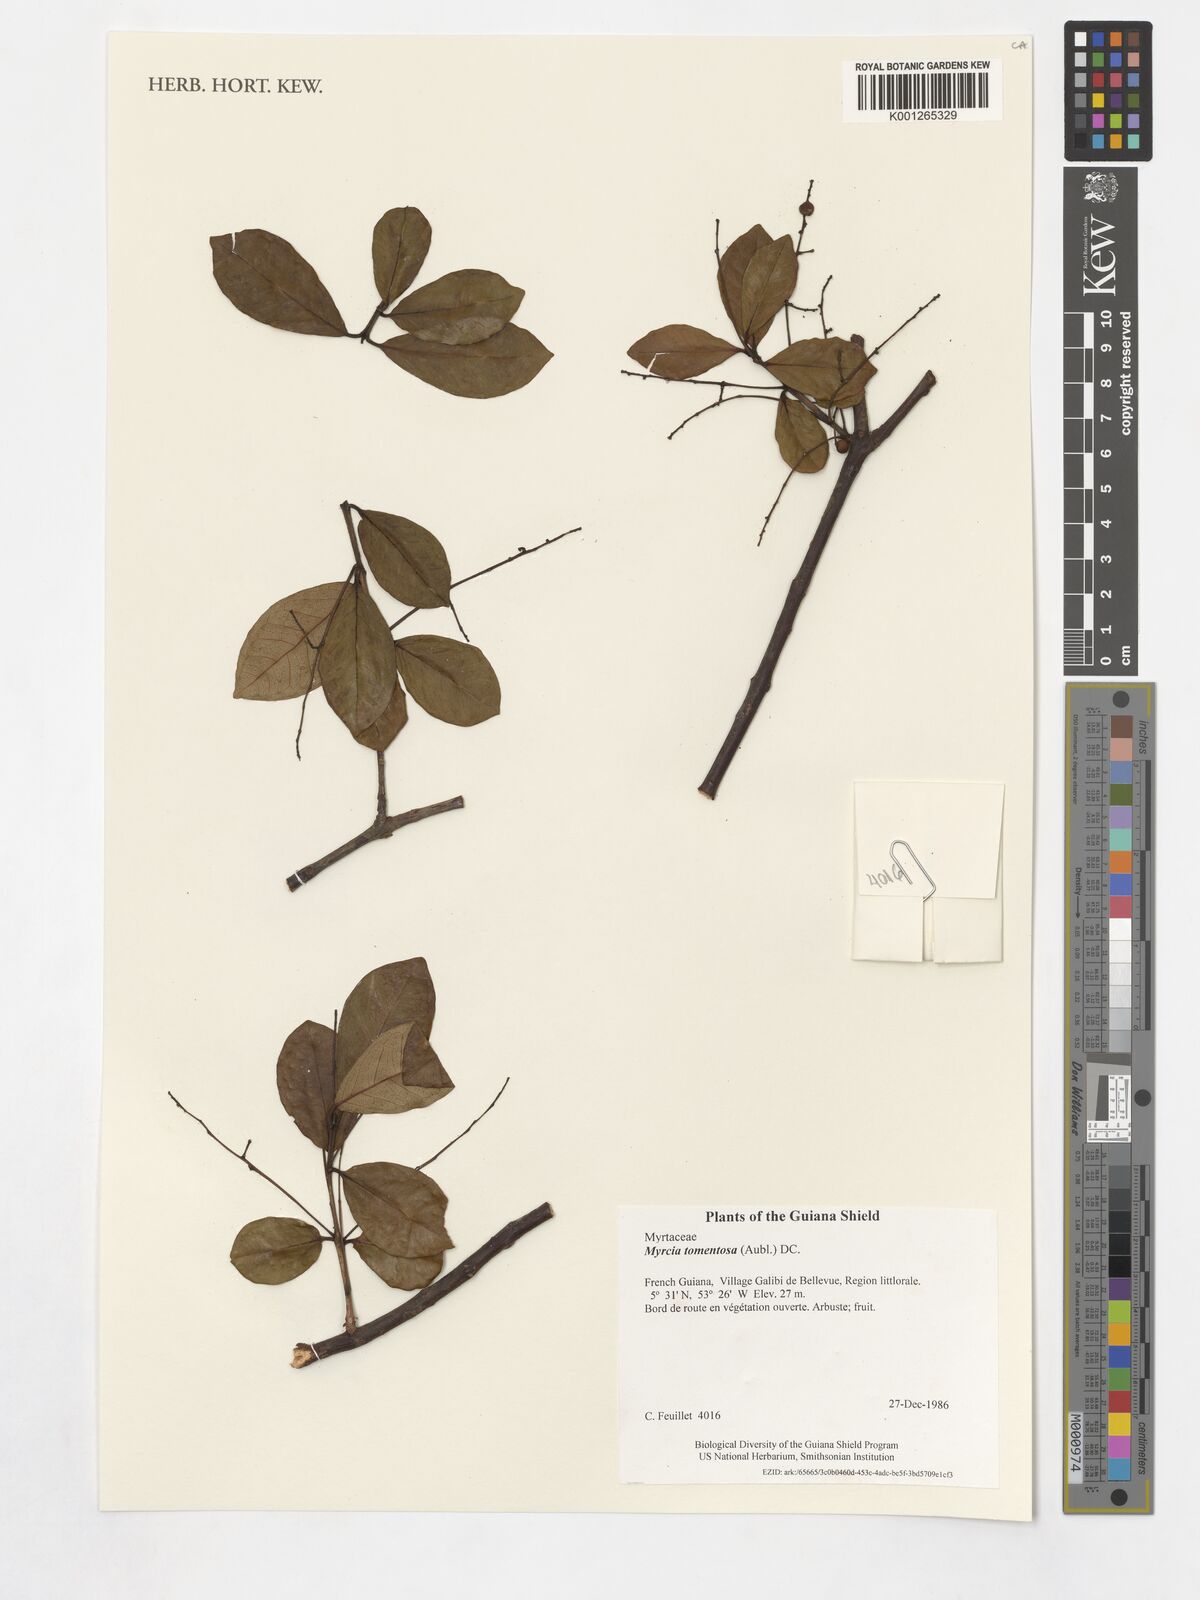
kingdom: Plantae
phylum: Tracheophyta
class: Magnoliopsida
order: Myrtales
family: Myrtaceae
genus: Myrcia
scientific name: Myrcia tomentosa
